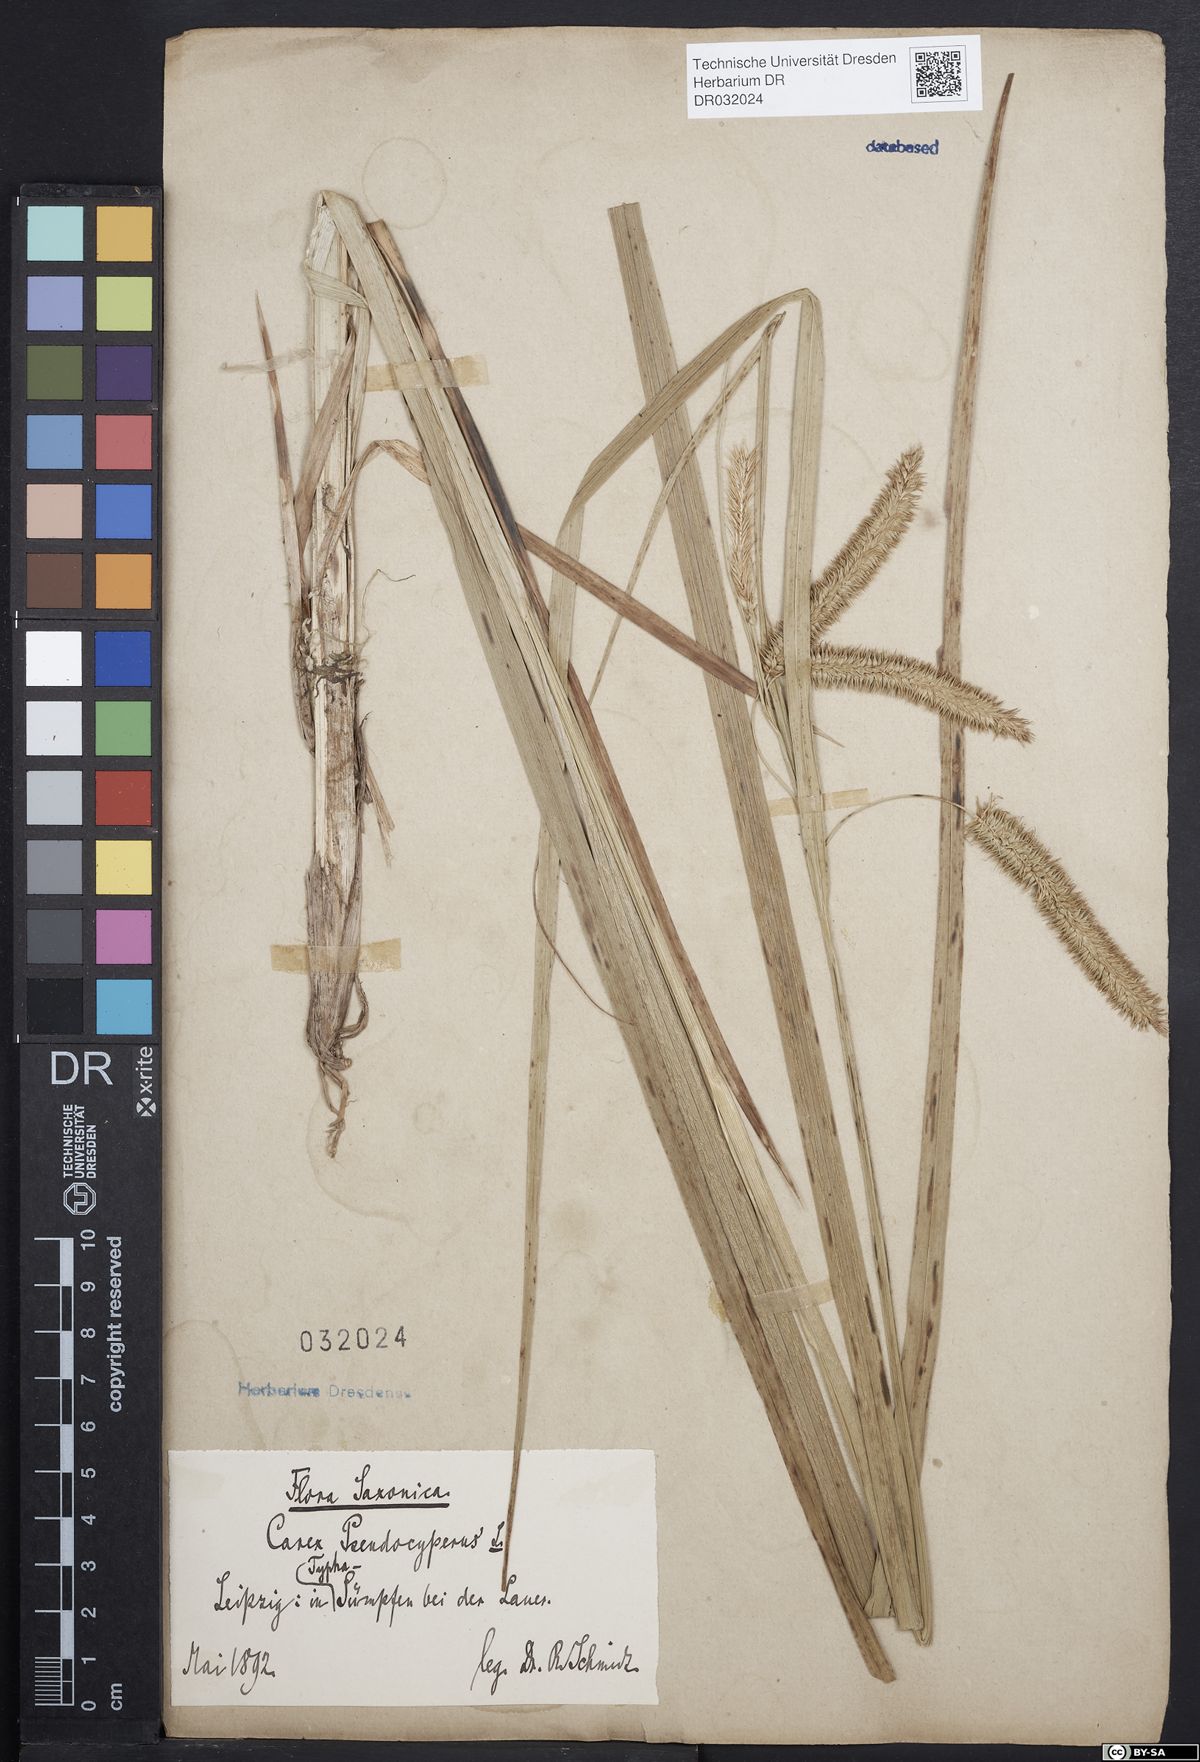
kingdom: Plantae
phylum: Tracheophyta
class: Liliopsida
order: Poales
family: Cyperaceae
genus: Carex
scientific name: Carex pseudocyperus
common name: Cyperus sedge
